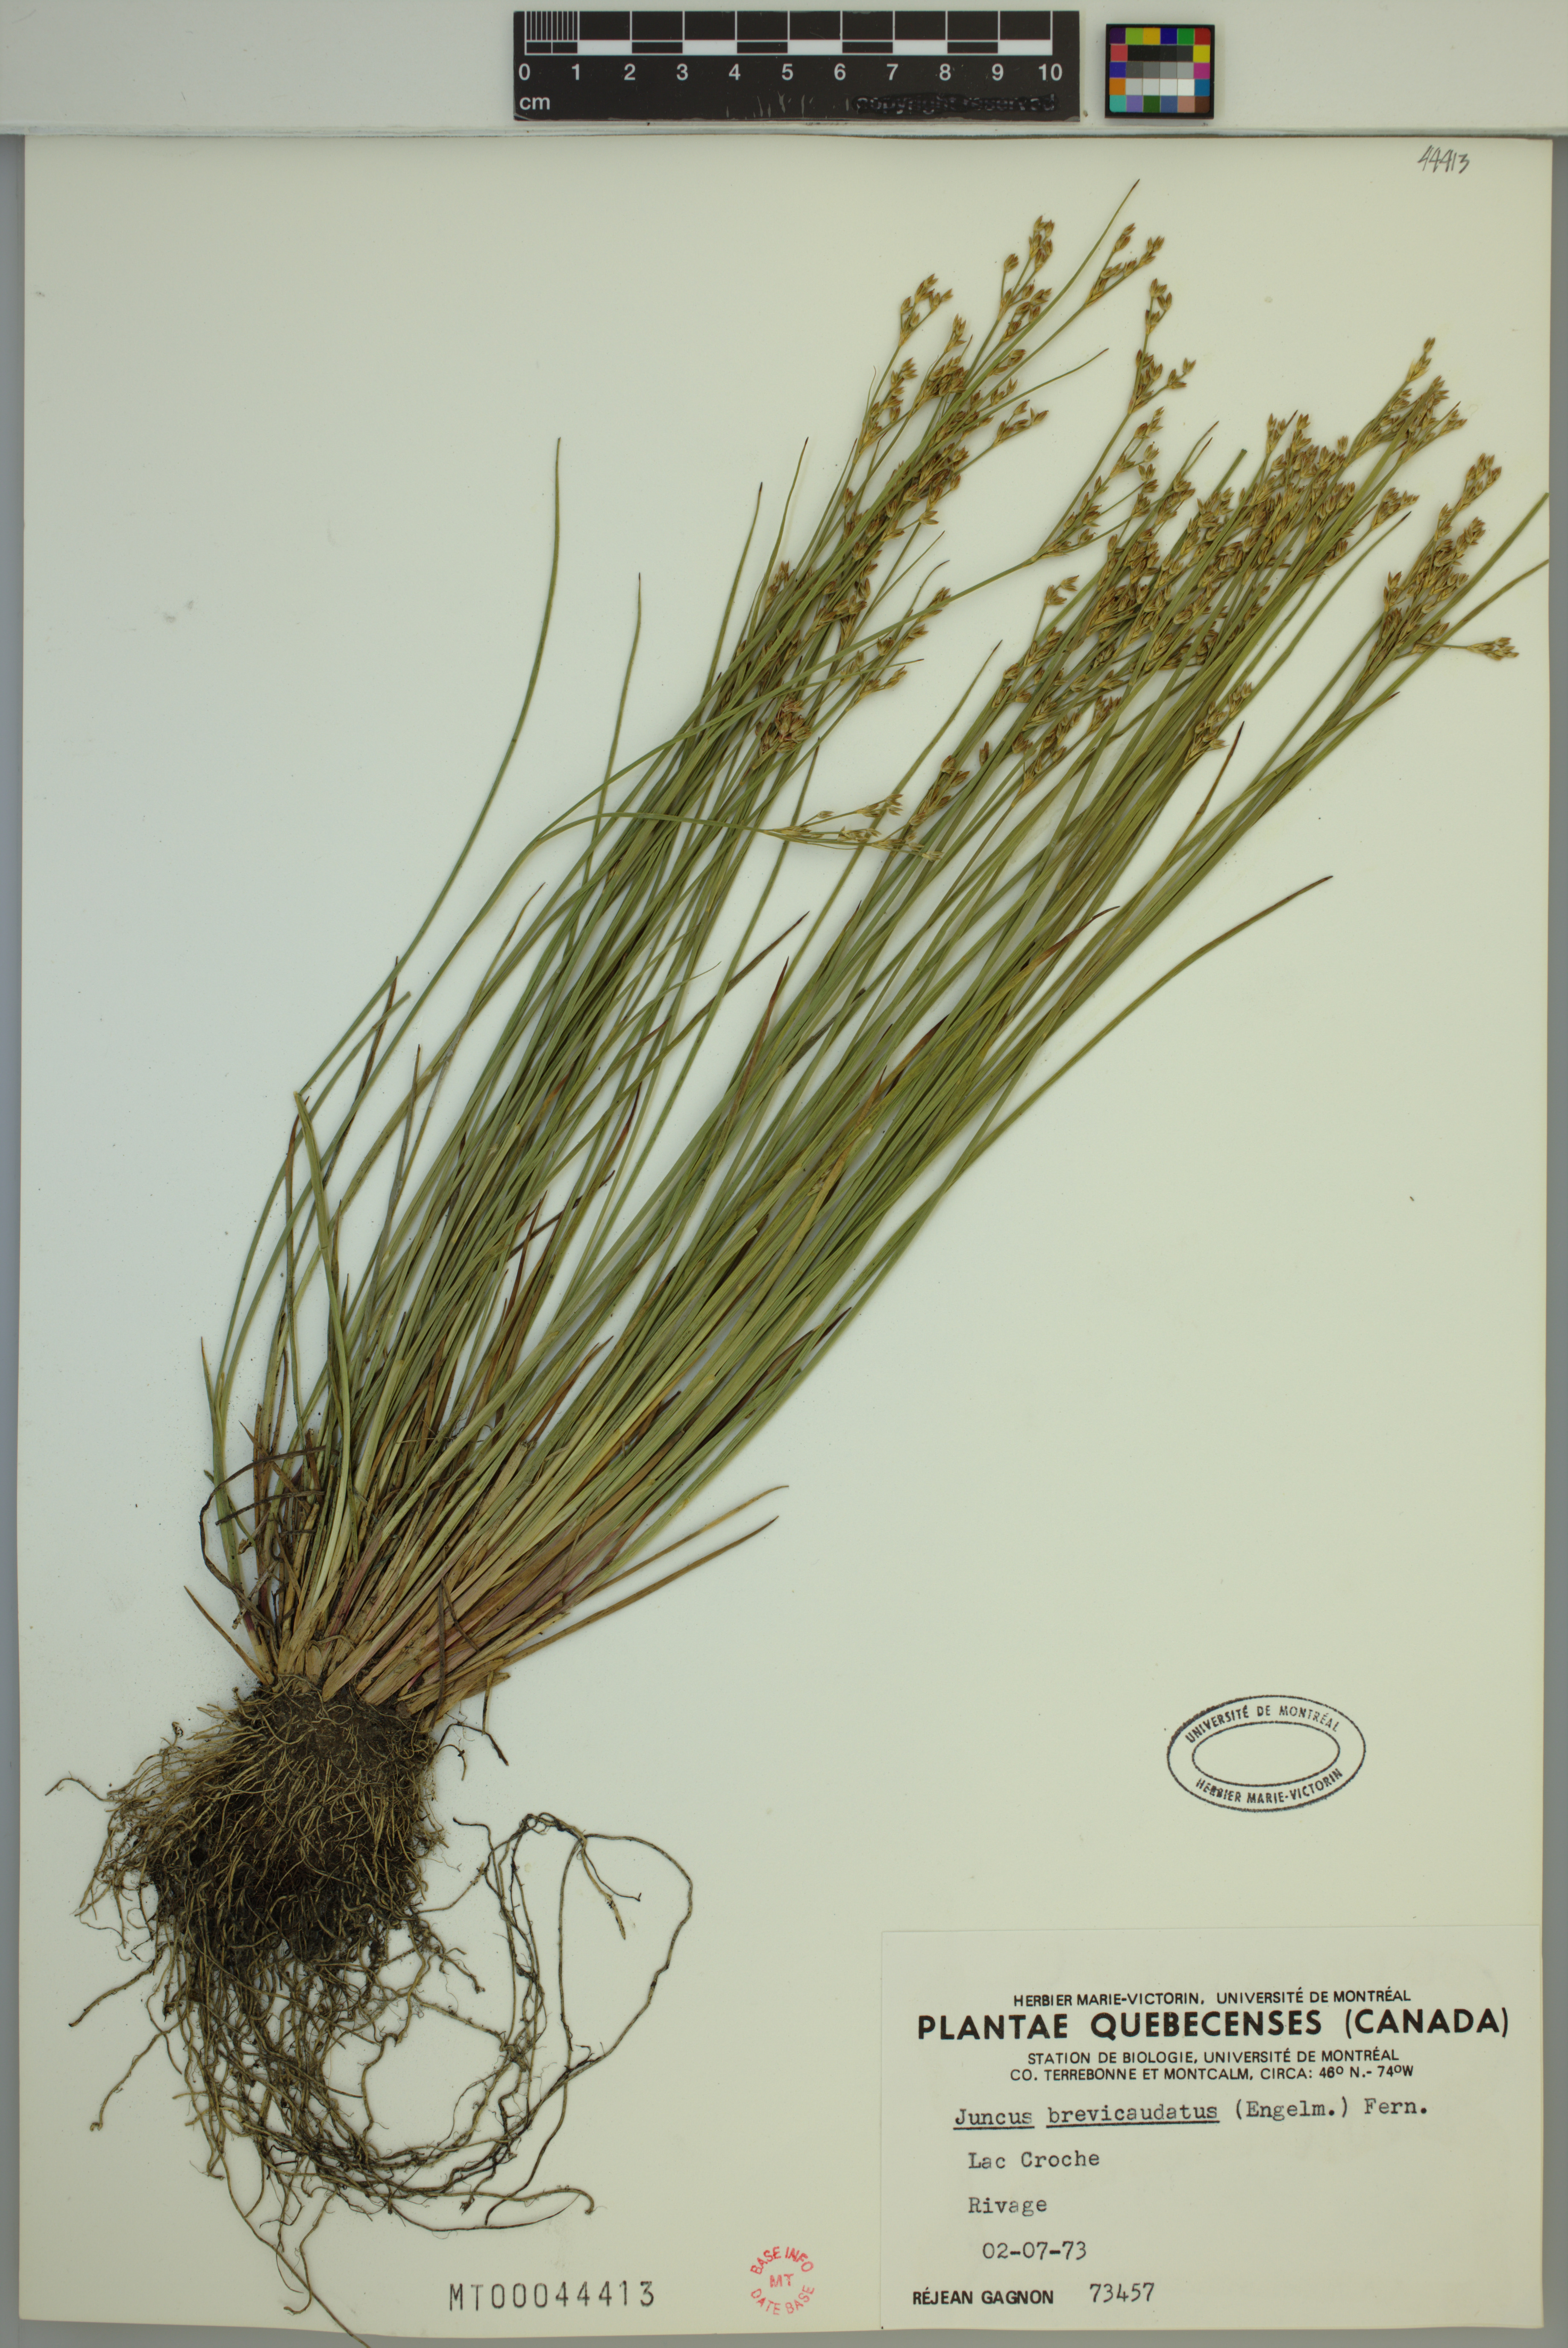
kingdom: Plantae
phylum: Tracheophyta
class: Liliopsida
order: Poales
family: Juncaceae
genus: Juncus
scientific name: Juncus brevicaudatus
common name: Narrow-panicle rush
